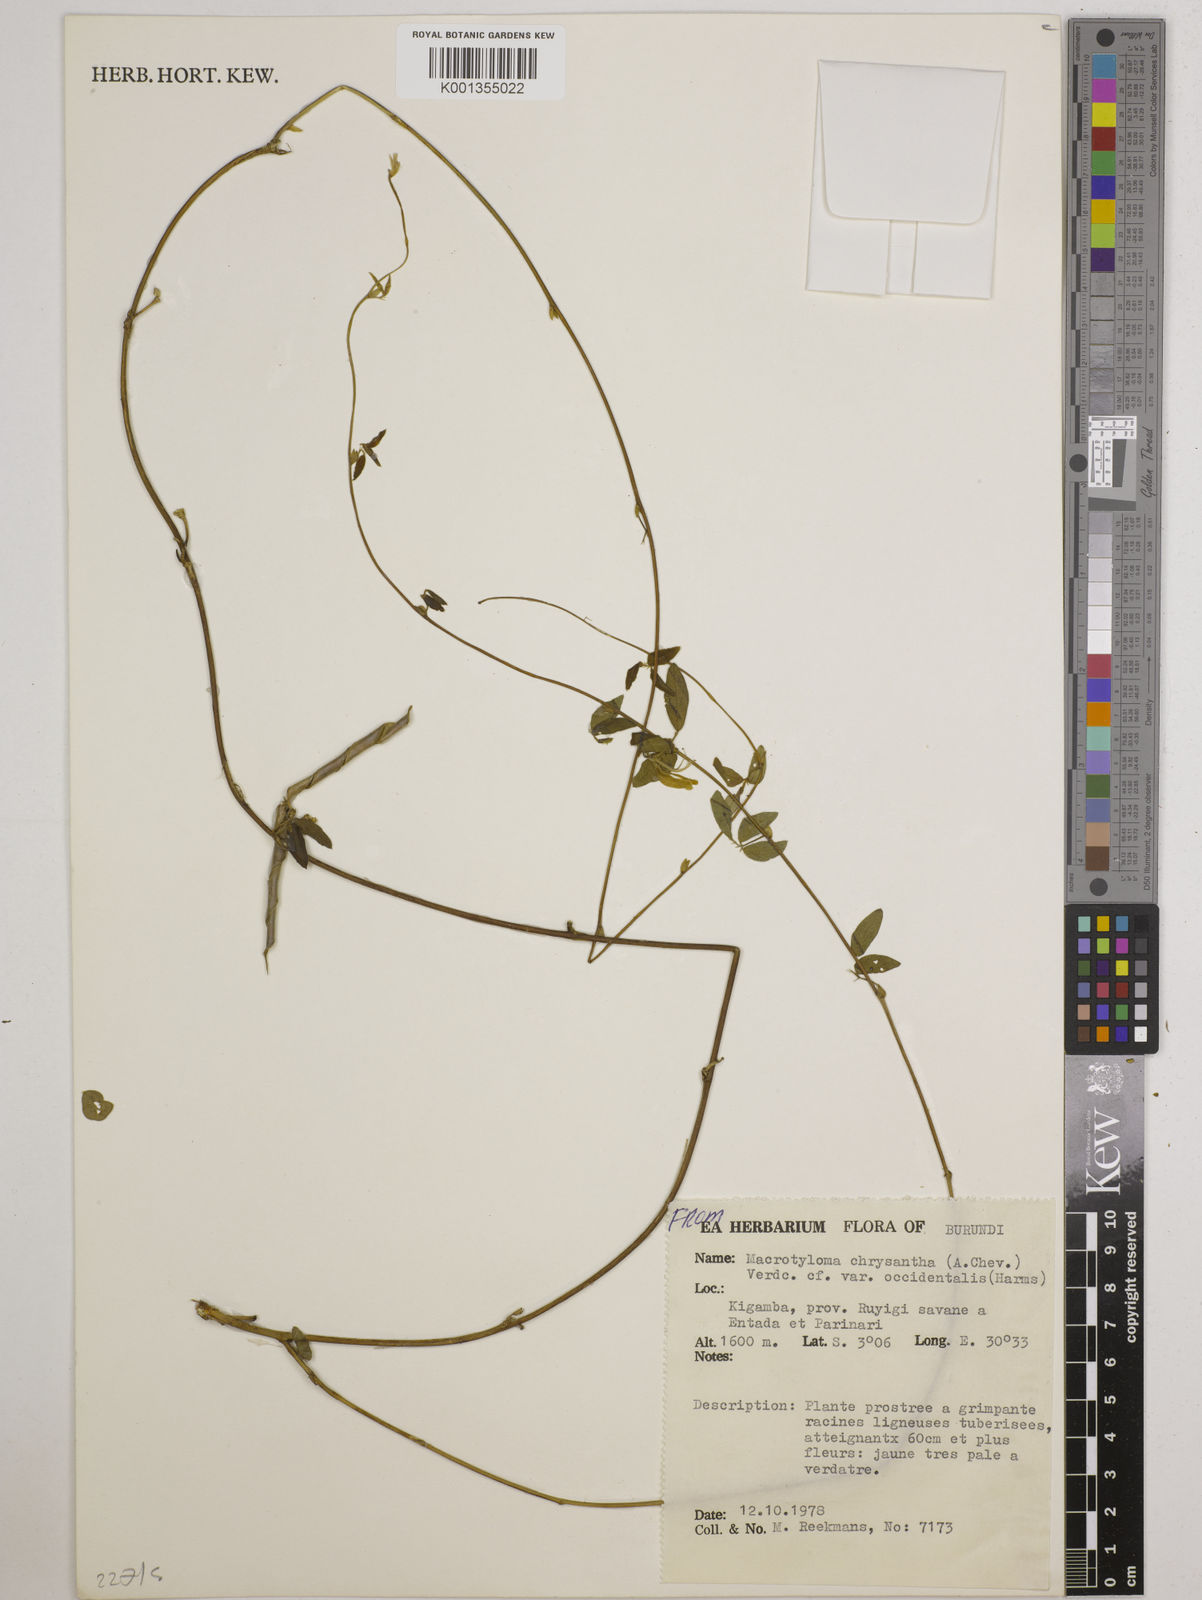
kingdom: Plantae
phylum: Tracheophyta
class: Magnoliopsida
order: Fabales
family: Fabaceae
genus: Macrotyloma
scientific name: Macrotyloma
